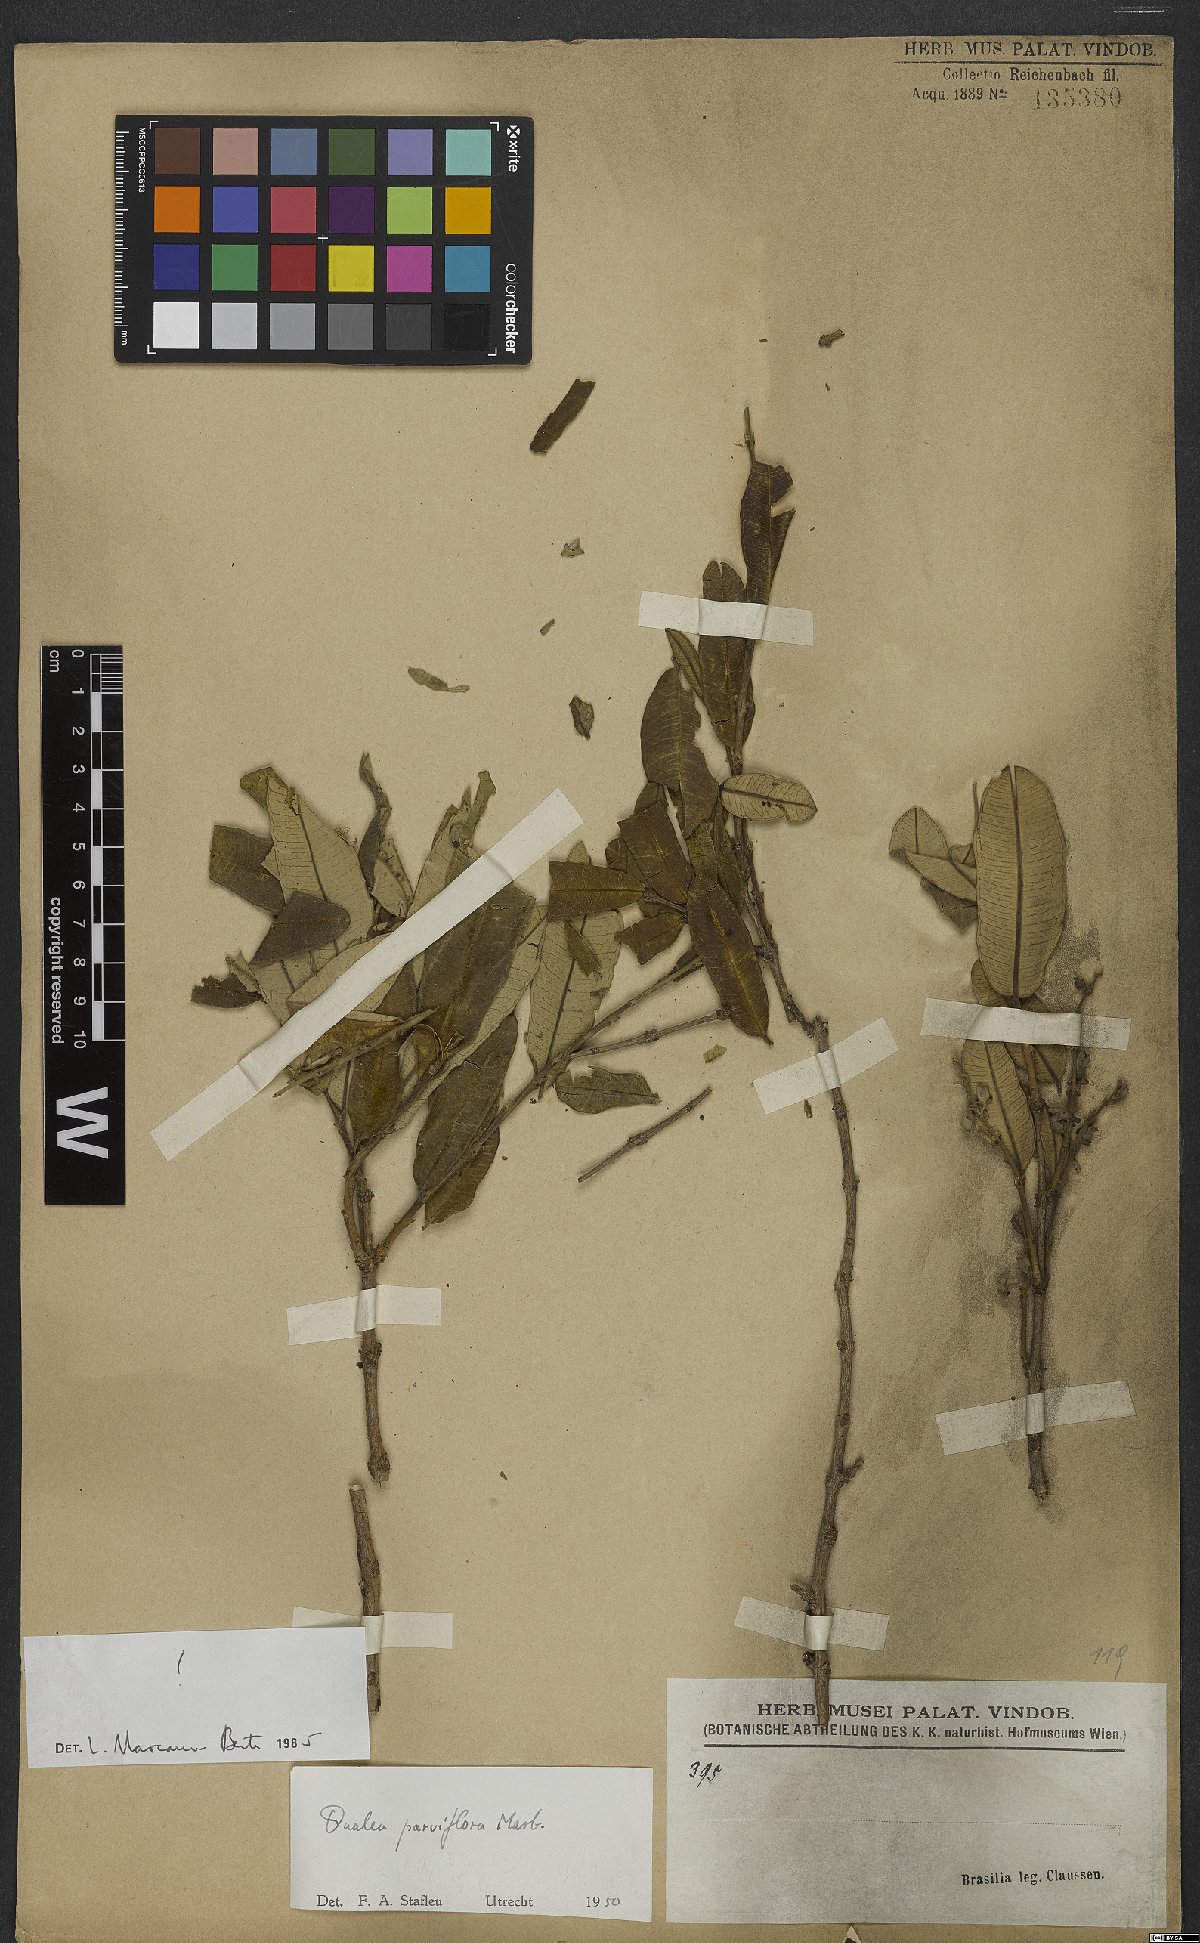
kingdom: Plantae
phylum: Tracheophyta
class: Magnoliopsida
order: Myrtales
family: Vochysiaceae
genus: Qualea
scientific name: Qualea parviflora
